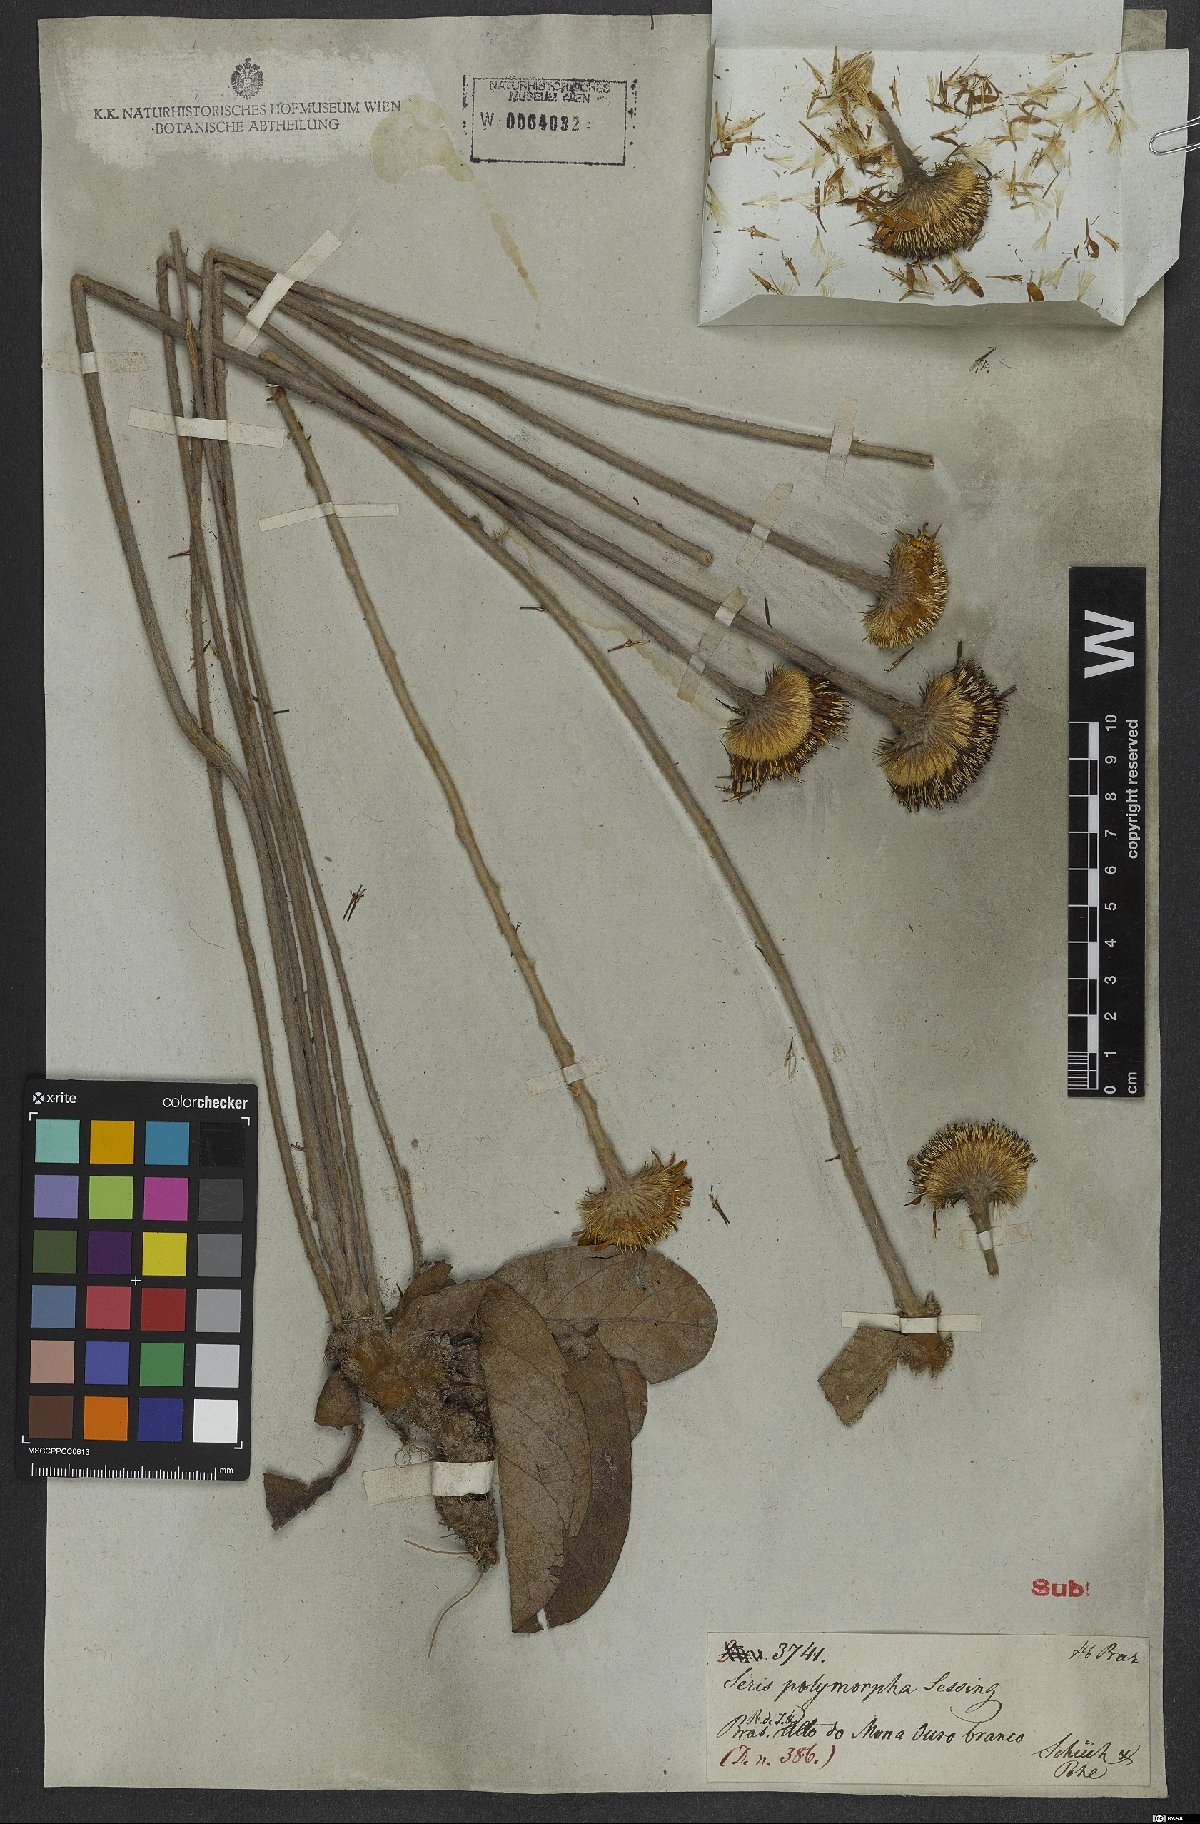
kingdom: Plantae
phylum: Tracheophyta
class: Magnoliopsida
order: Asterales
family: Asteraceae
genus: Richterago
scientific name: Richterago polymorpha
